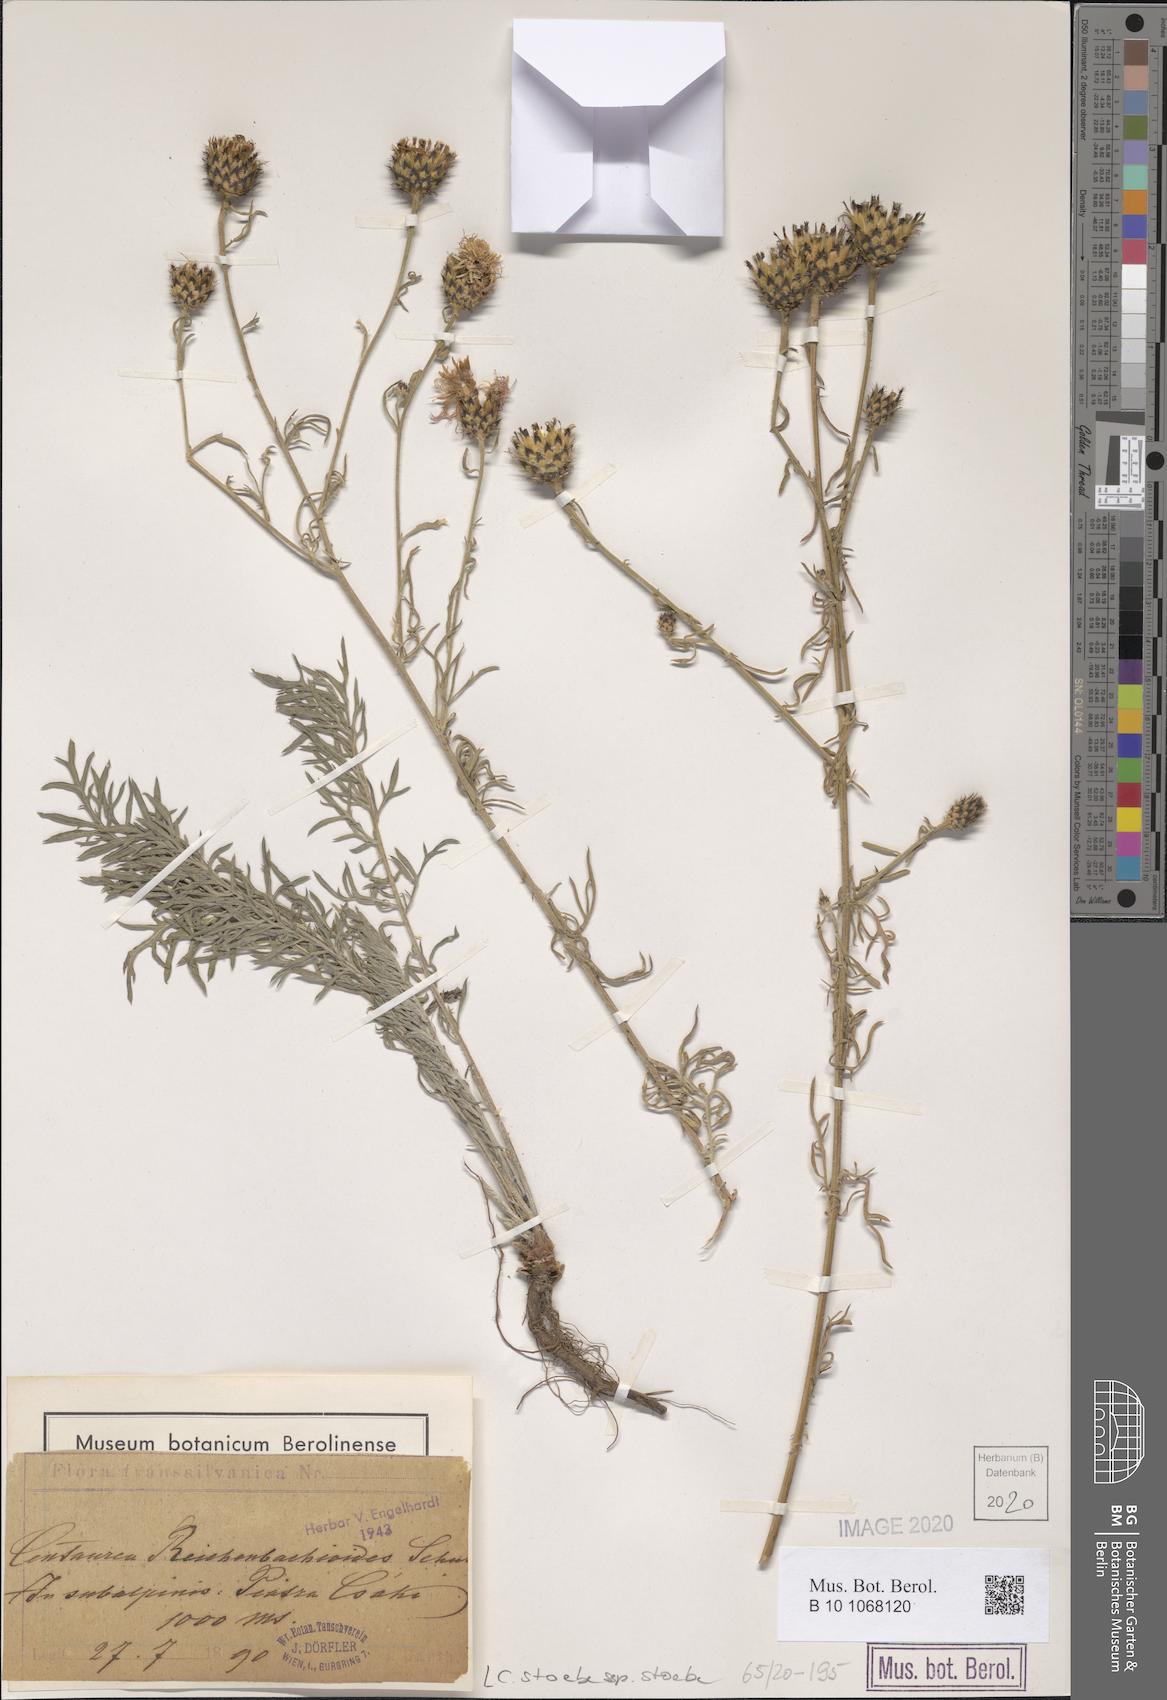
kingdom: Plantae
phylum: Tracheophyta
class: Magnoliopsida
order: Asterales
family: Asteraceae
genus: Centaurea
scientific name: Centaurea stoebe
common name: Spotted knapweed
